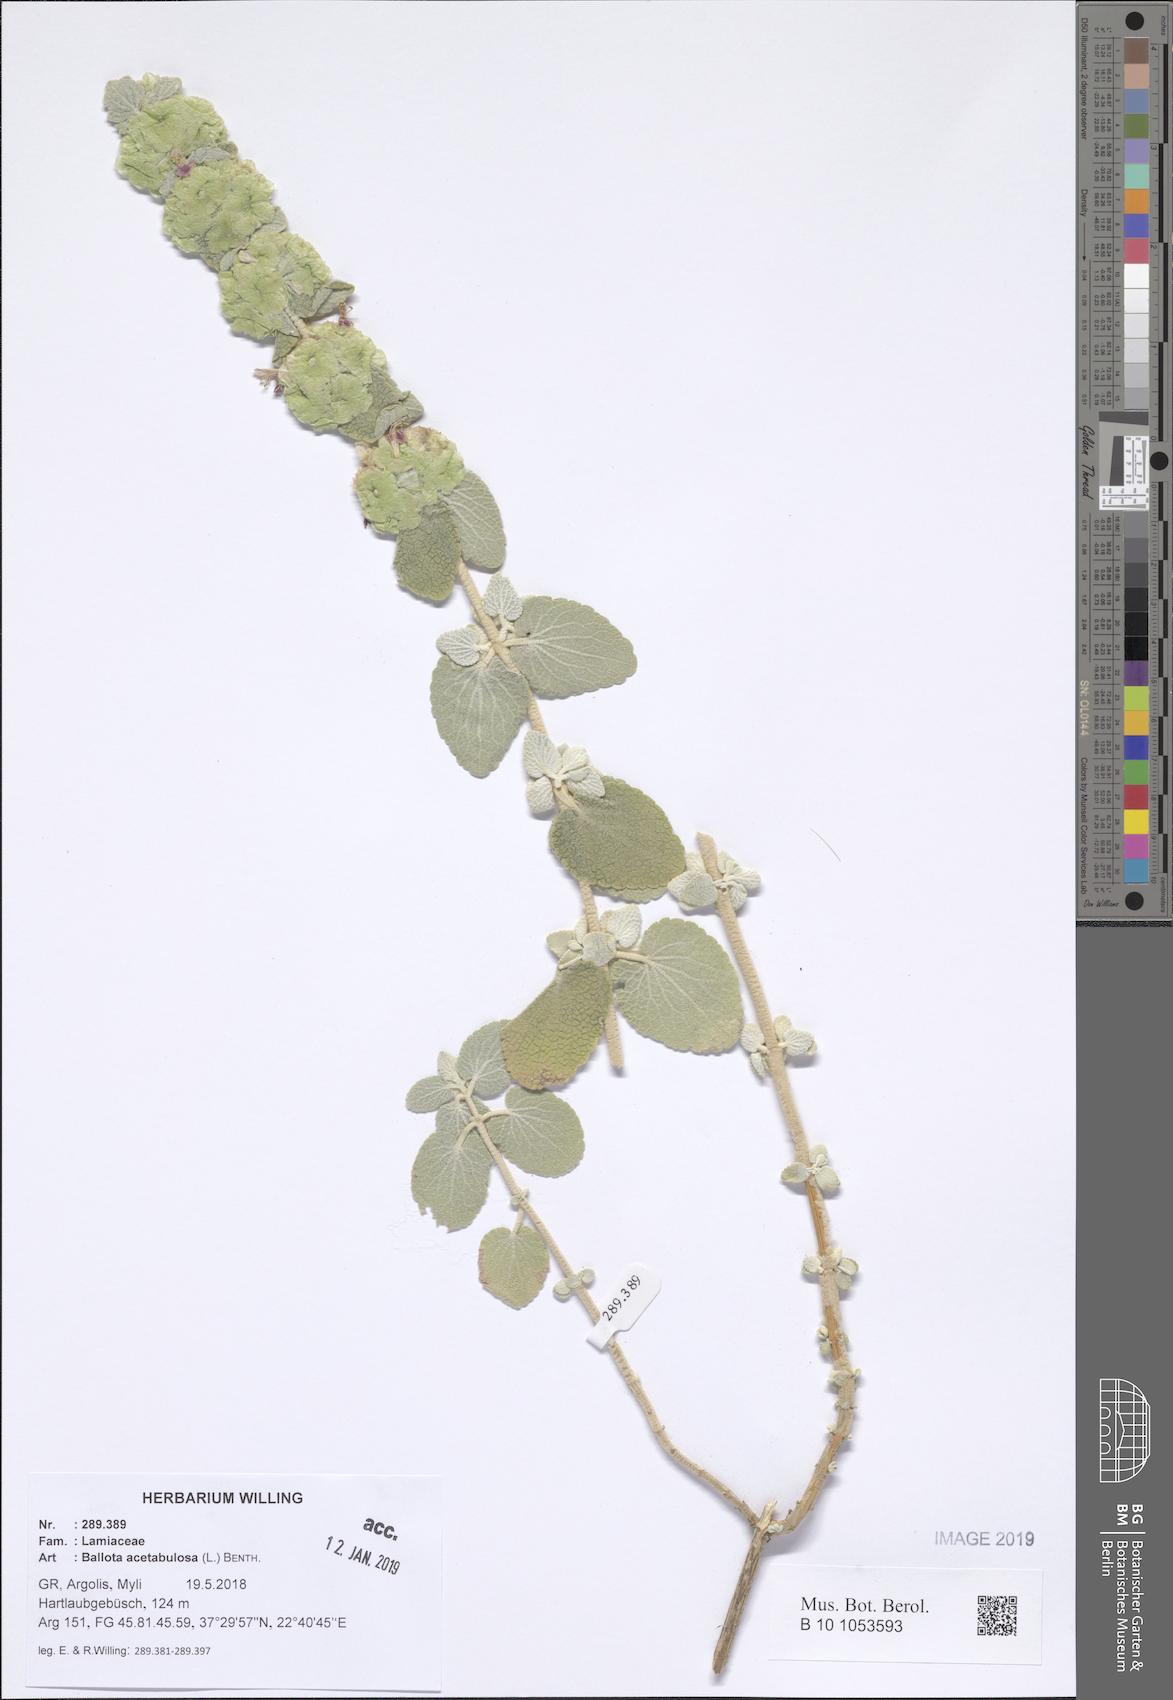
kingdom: Plantae
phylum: Tracheophyta
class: Magnoliopsida
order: Lamiales
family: Lamiaceae
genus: Pseudodictamnus
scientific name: Pseudodictamnus acetabulosus
